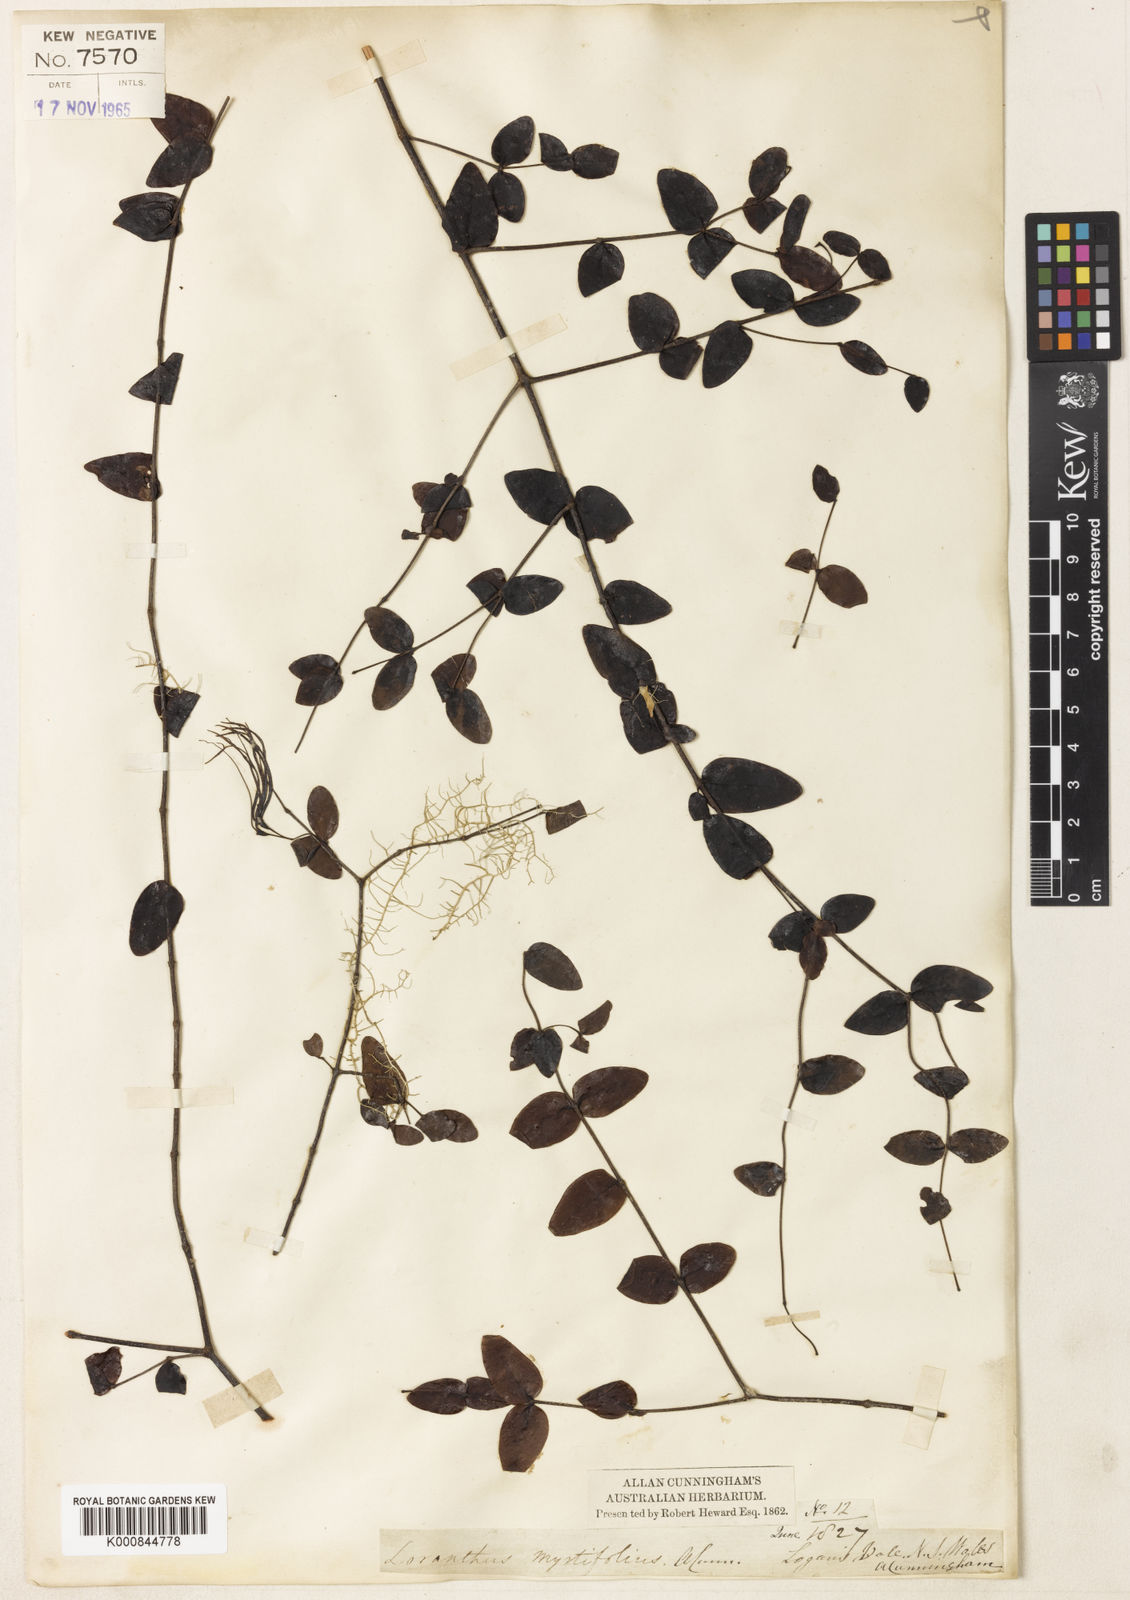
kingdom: Plantae
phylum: Tracheophyta
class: Magnoliopsida
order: Santalales
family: Loranthaceae
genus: Muellerina
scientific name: Muellerina myrtifolia
